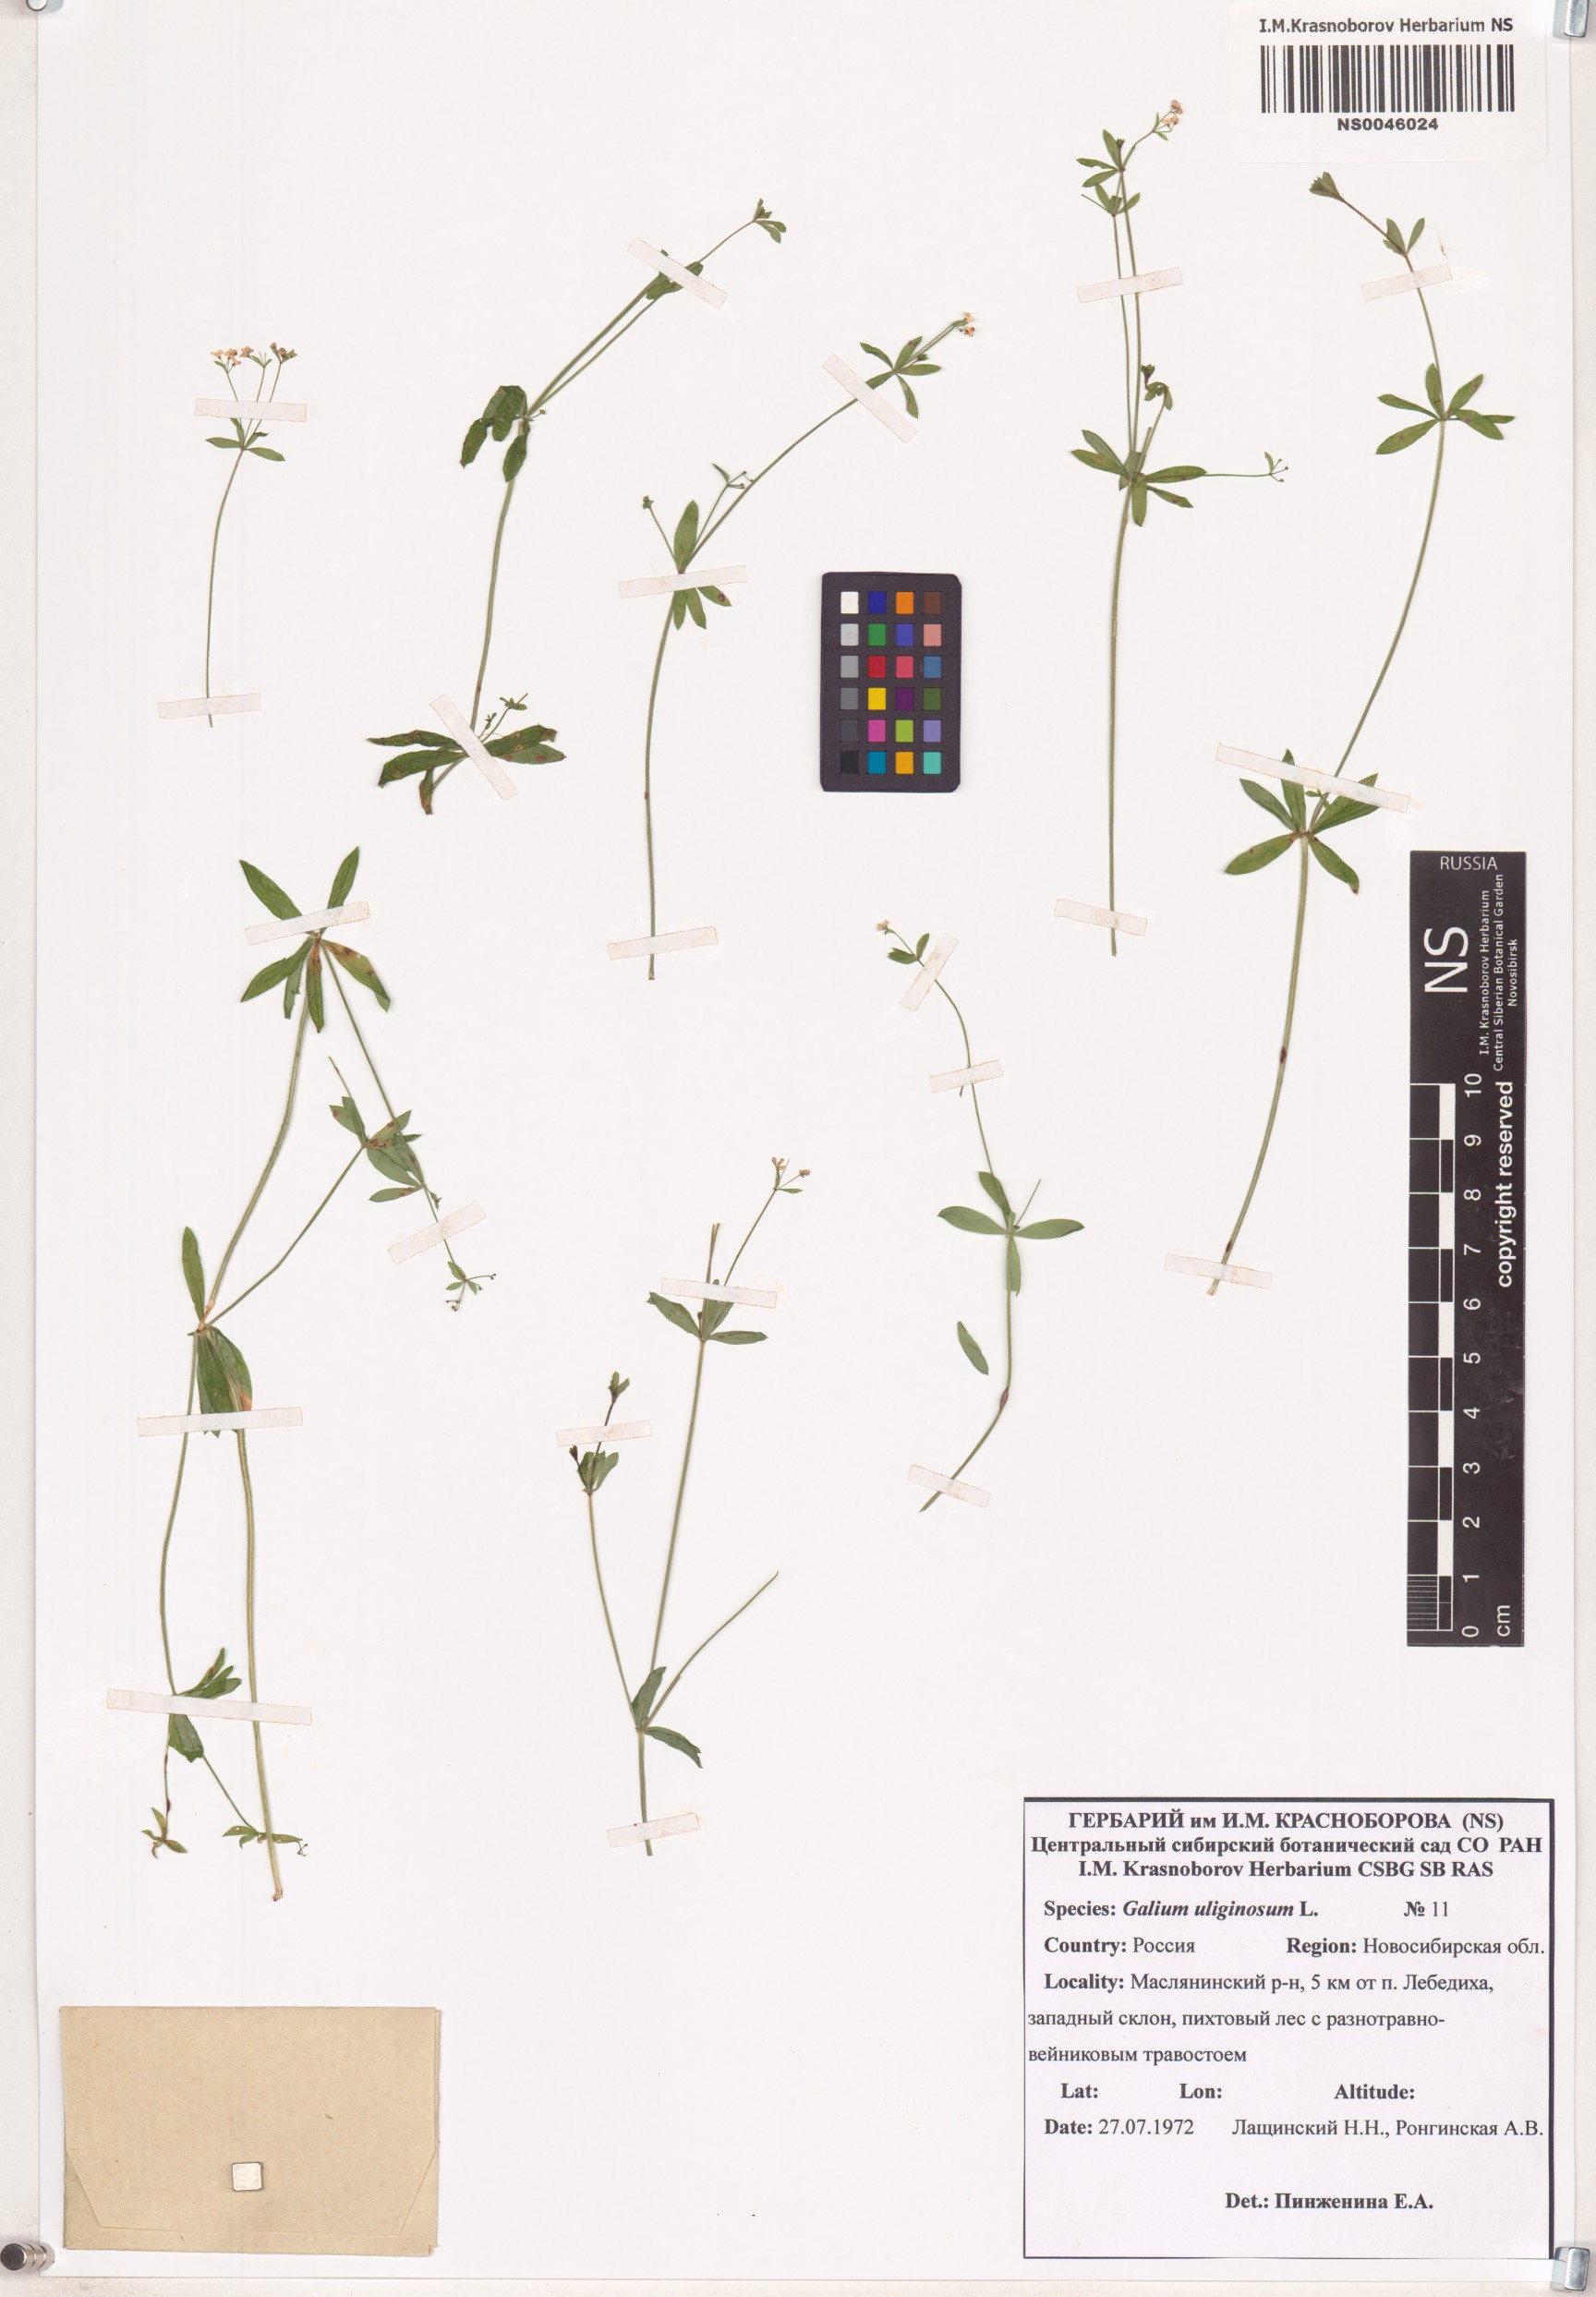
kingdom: Plantae
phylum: Tracheophyta
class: Magnoliopsida
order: Gentianales
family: Rubiaceae
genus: Galium
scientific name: Galium uliginosum
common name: Fen bedstraw
